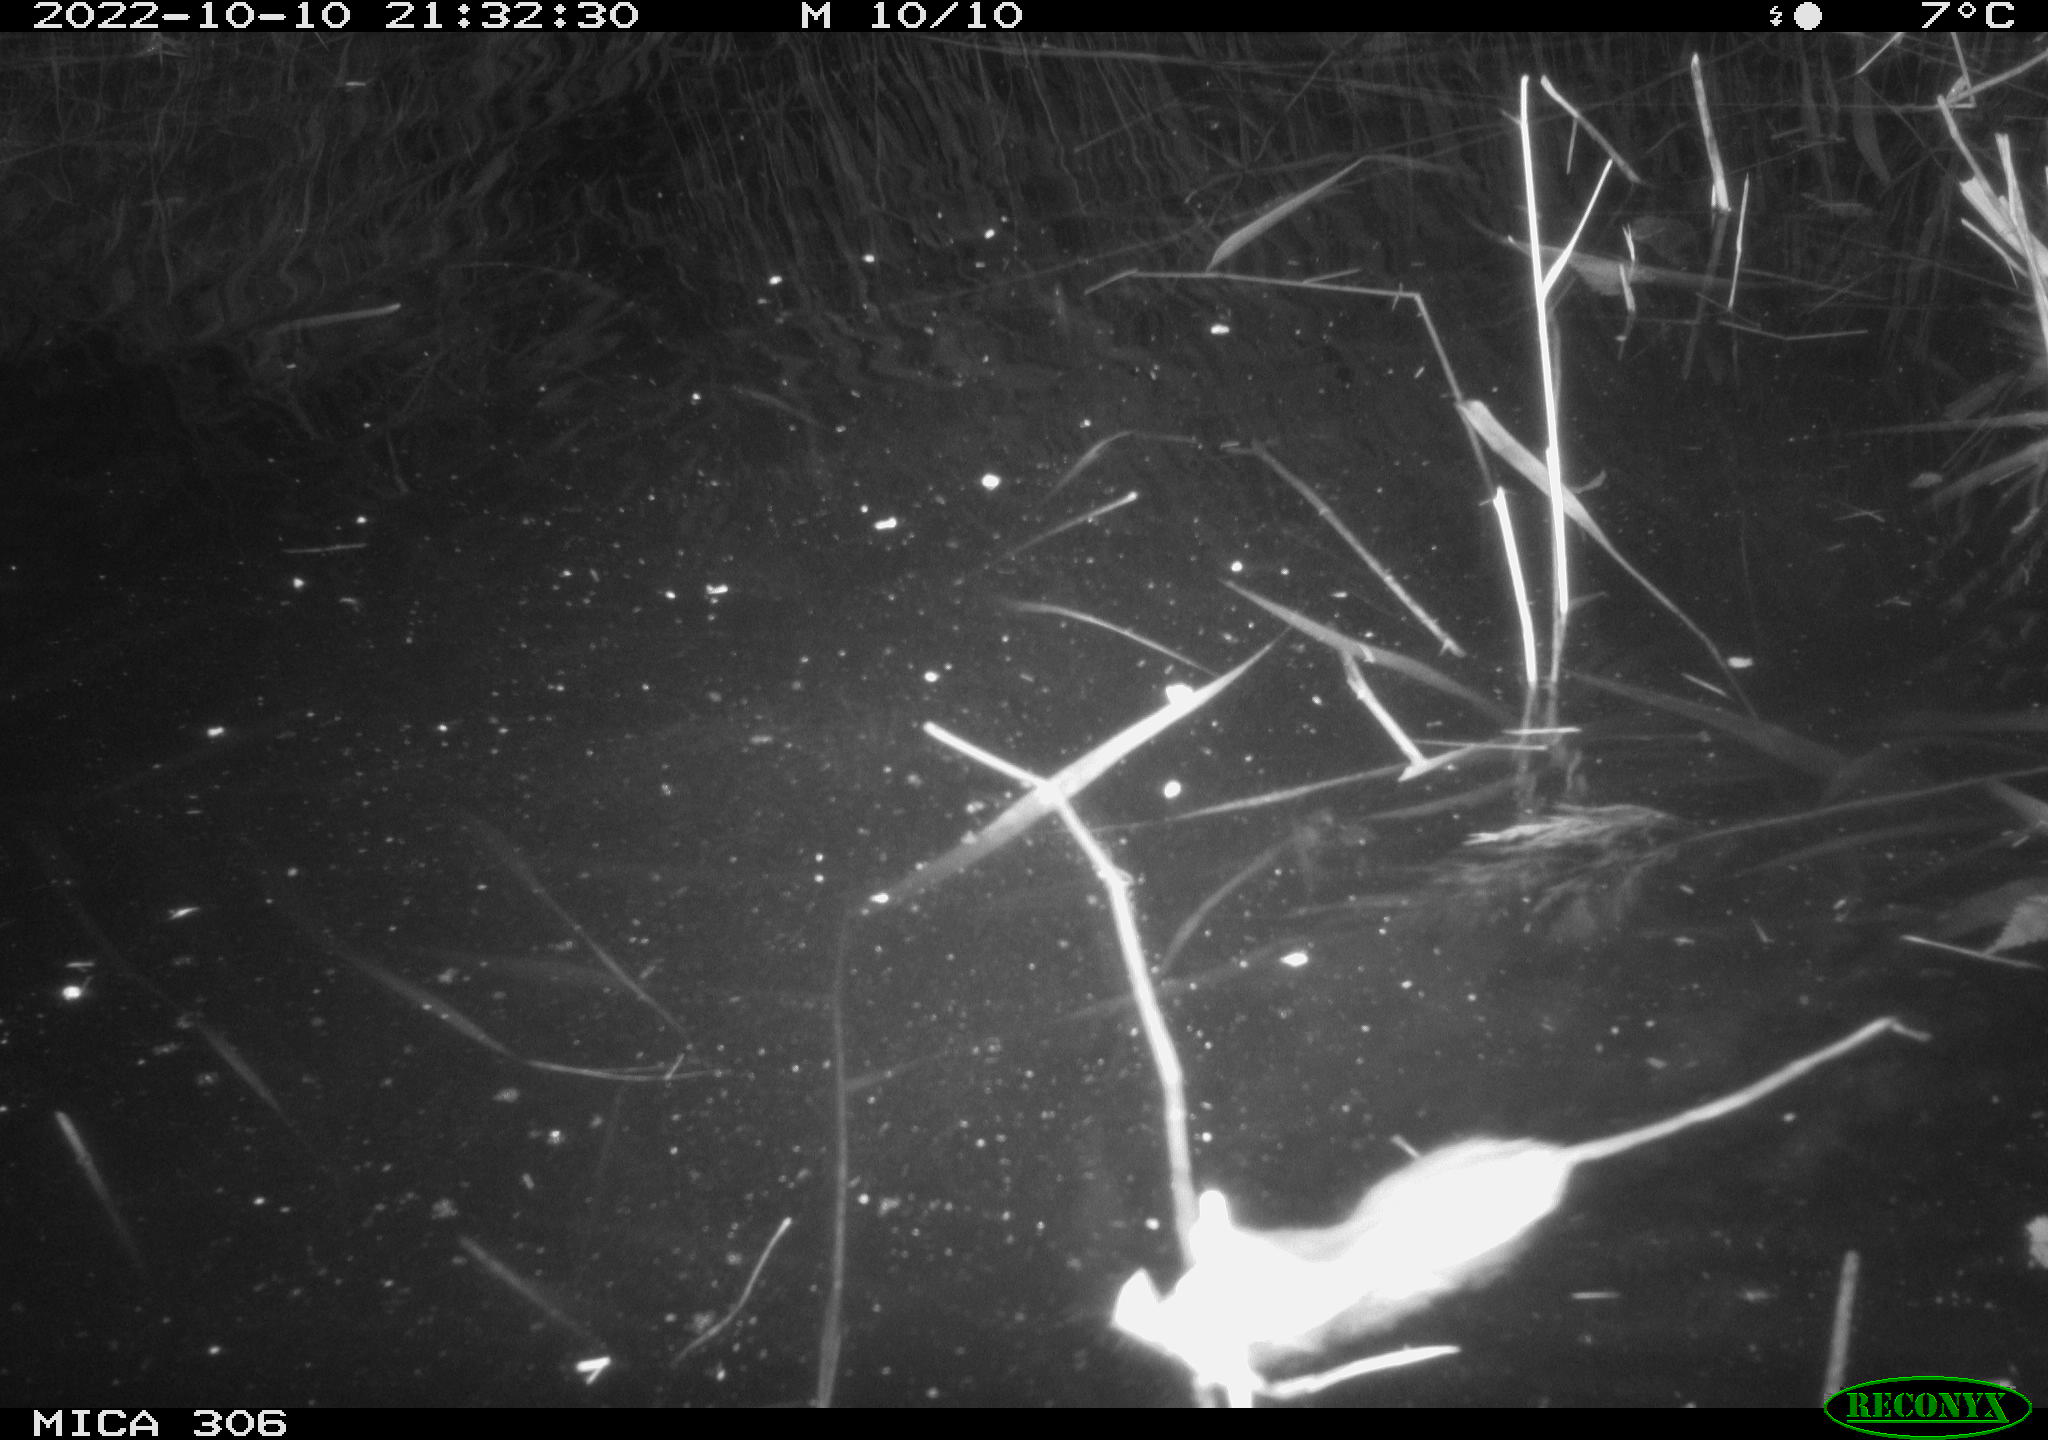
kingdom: Animalia
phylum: Chordata
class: Mammalia
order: Rodentia
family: Muridae
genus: Rattus
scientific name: Rattus norvegicus
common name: Brown rat
